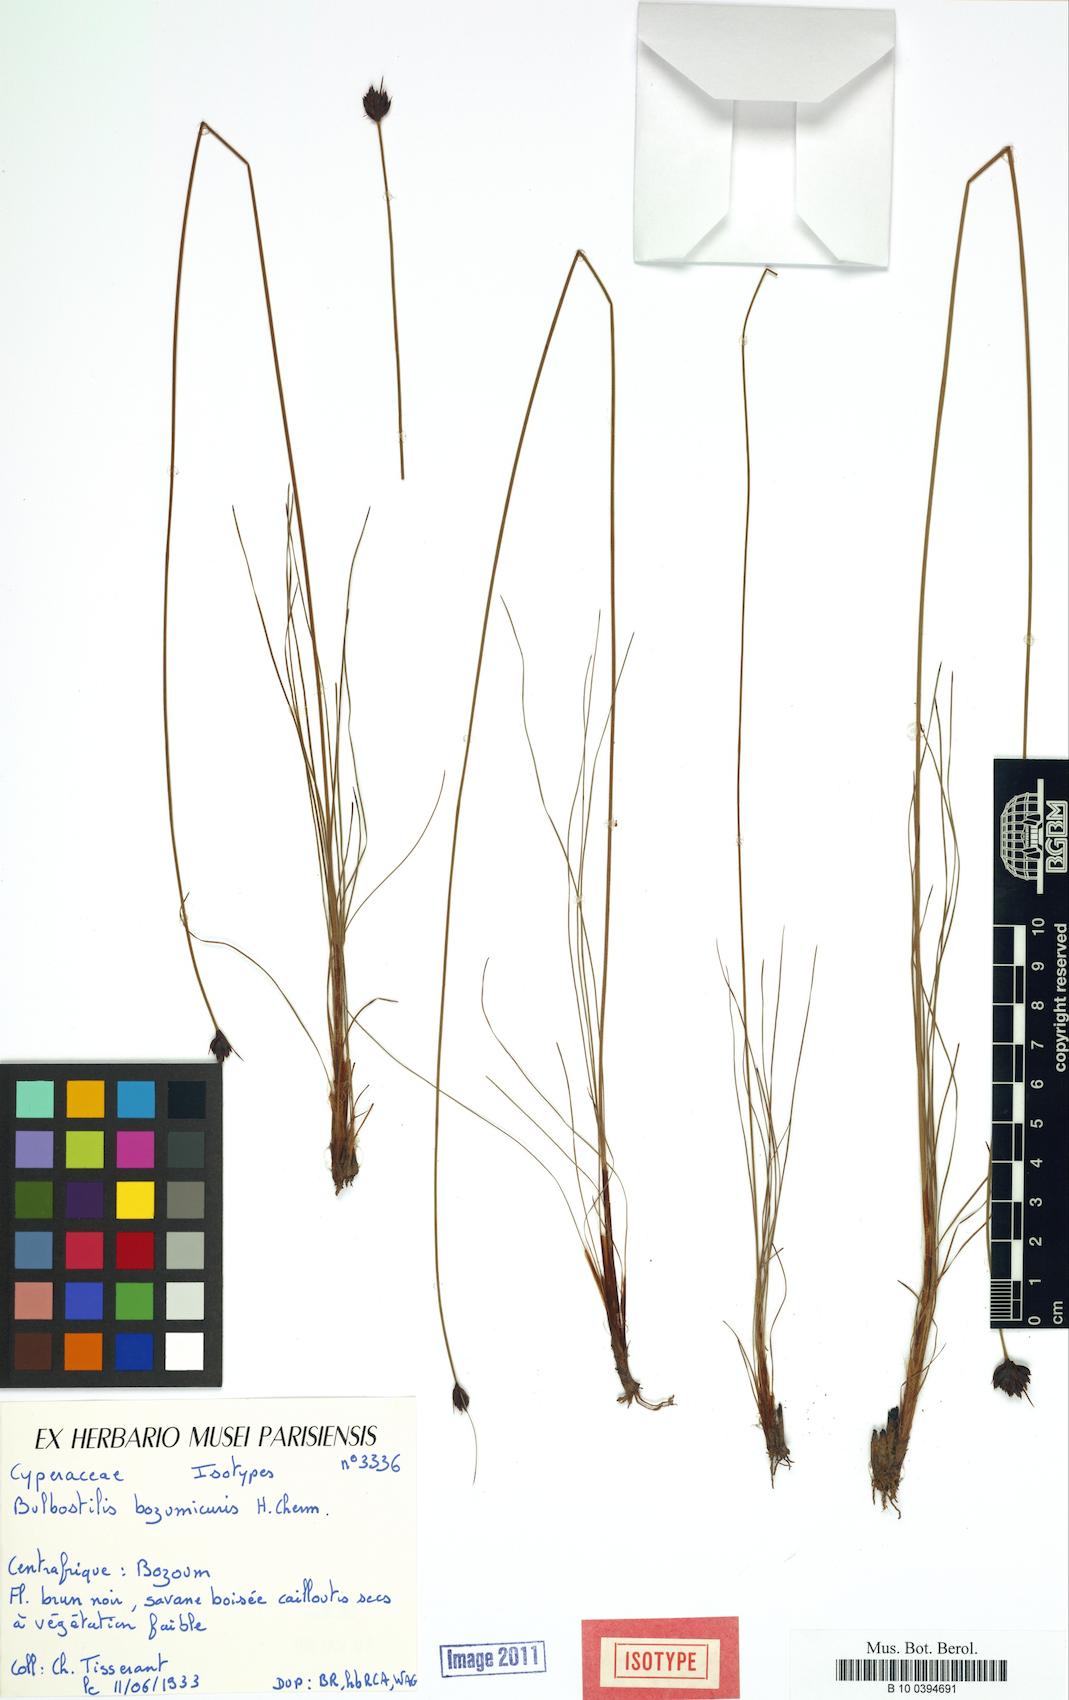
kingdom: Plantae
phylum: Tracheophyta
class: Liliopsida
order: Poales
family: Cyperaceae
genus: Bulbostylis
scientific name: Bulbostylis
